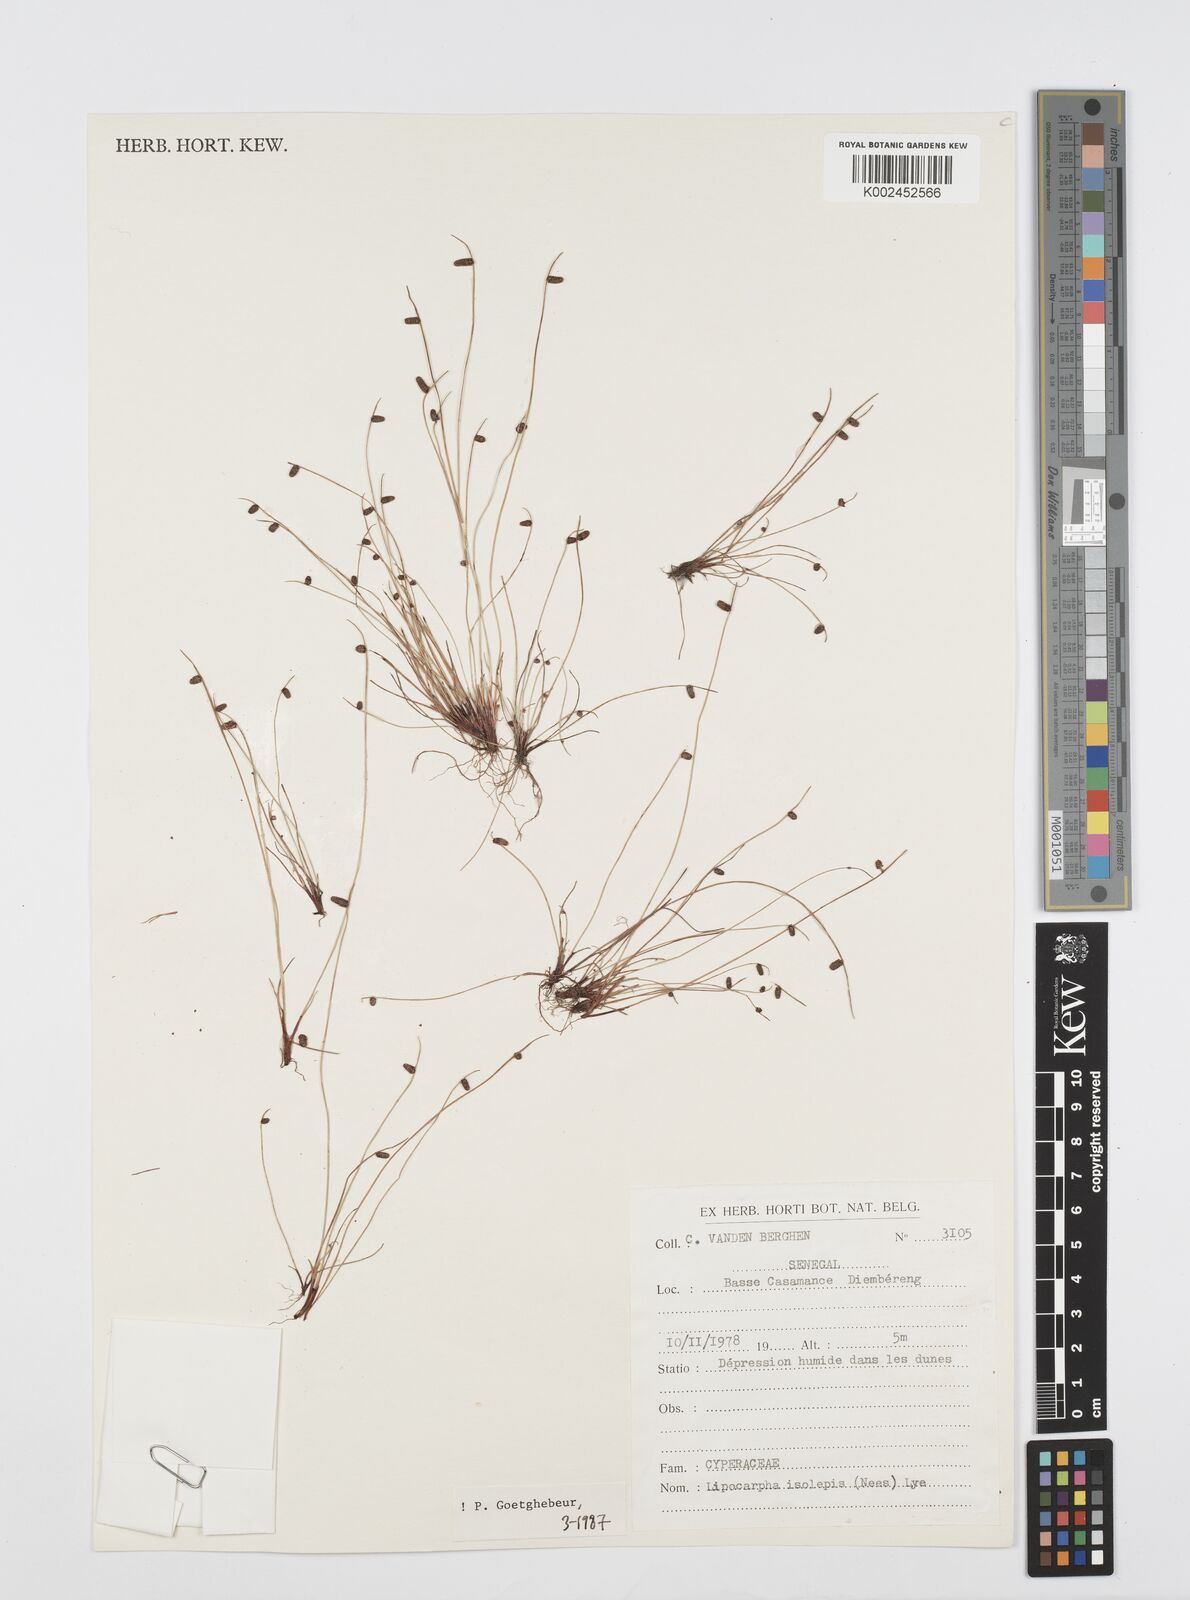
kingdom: Plantae
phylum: Tracheophyta
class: Liliopsida
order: Poales
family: Cyperaceae
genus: Cyperus
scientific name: Cyperus isolepis
